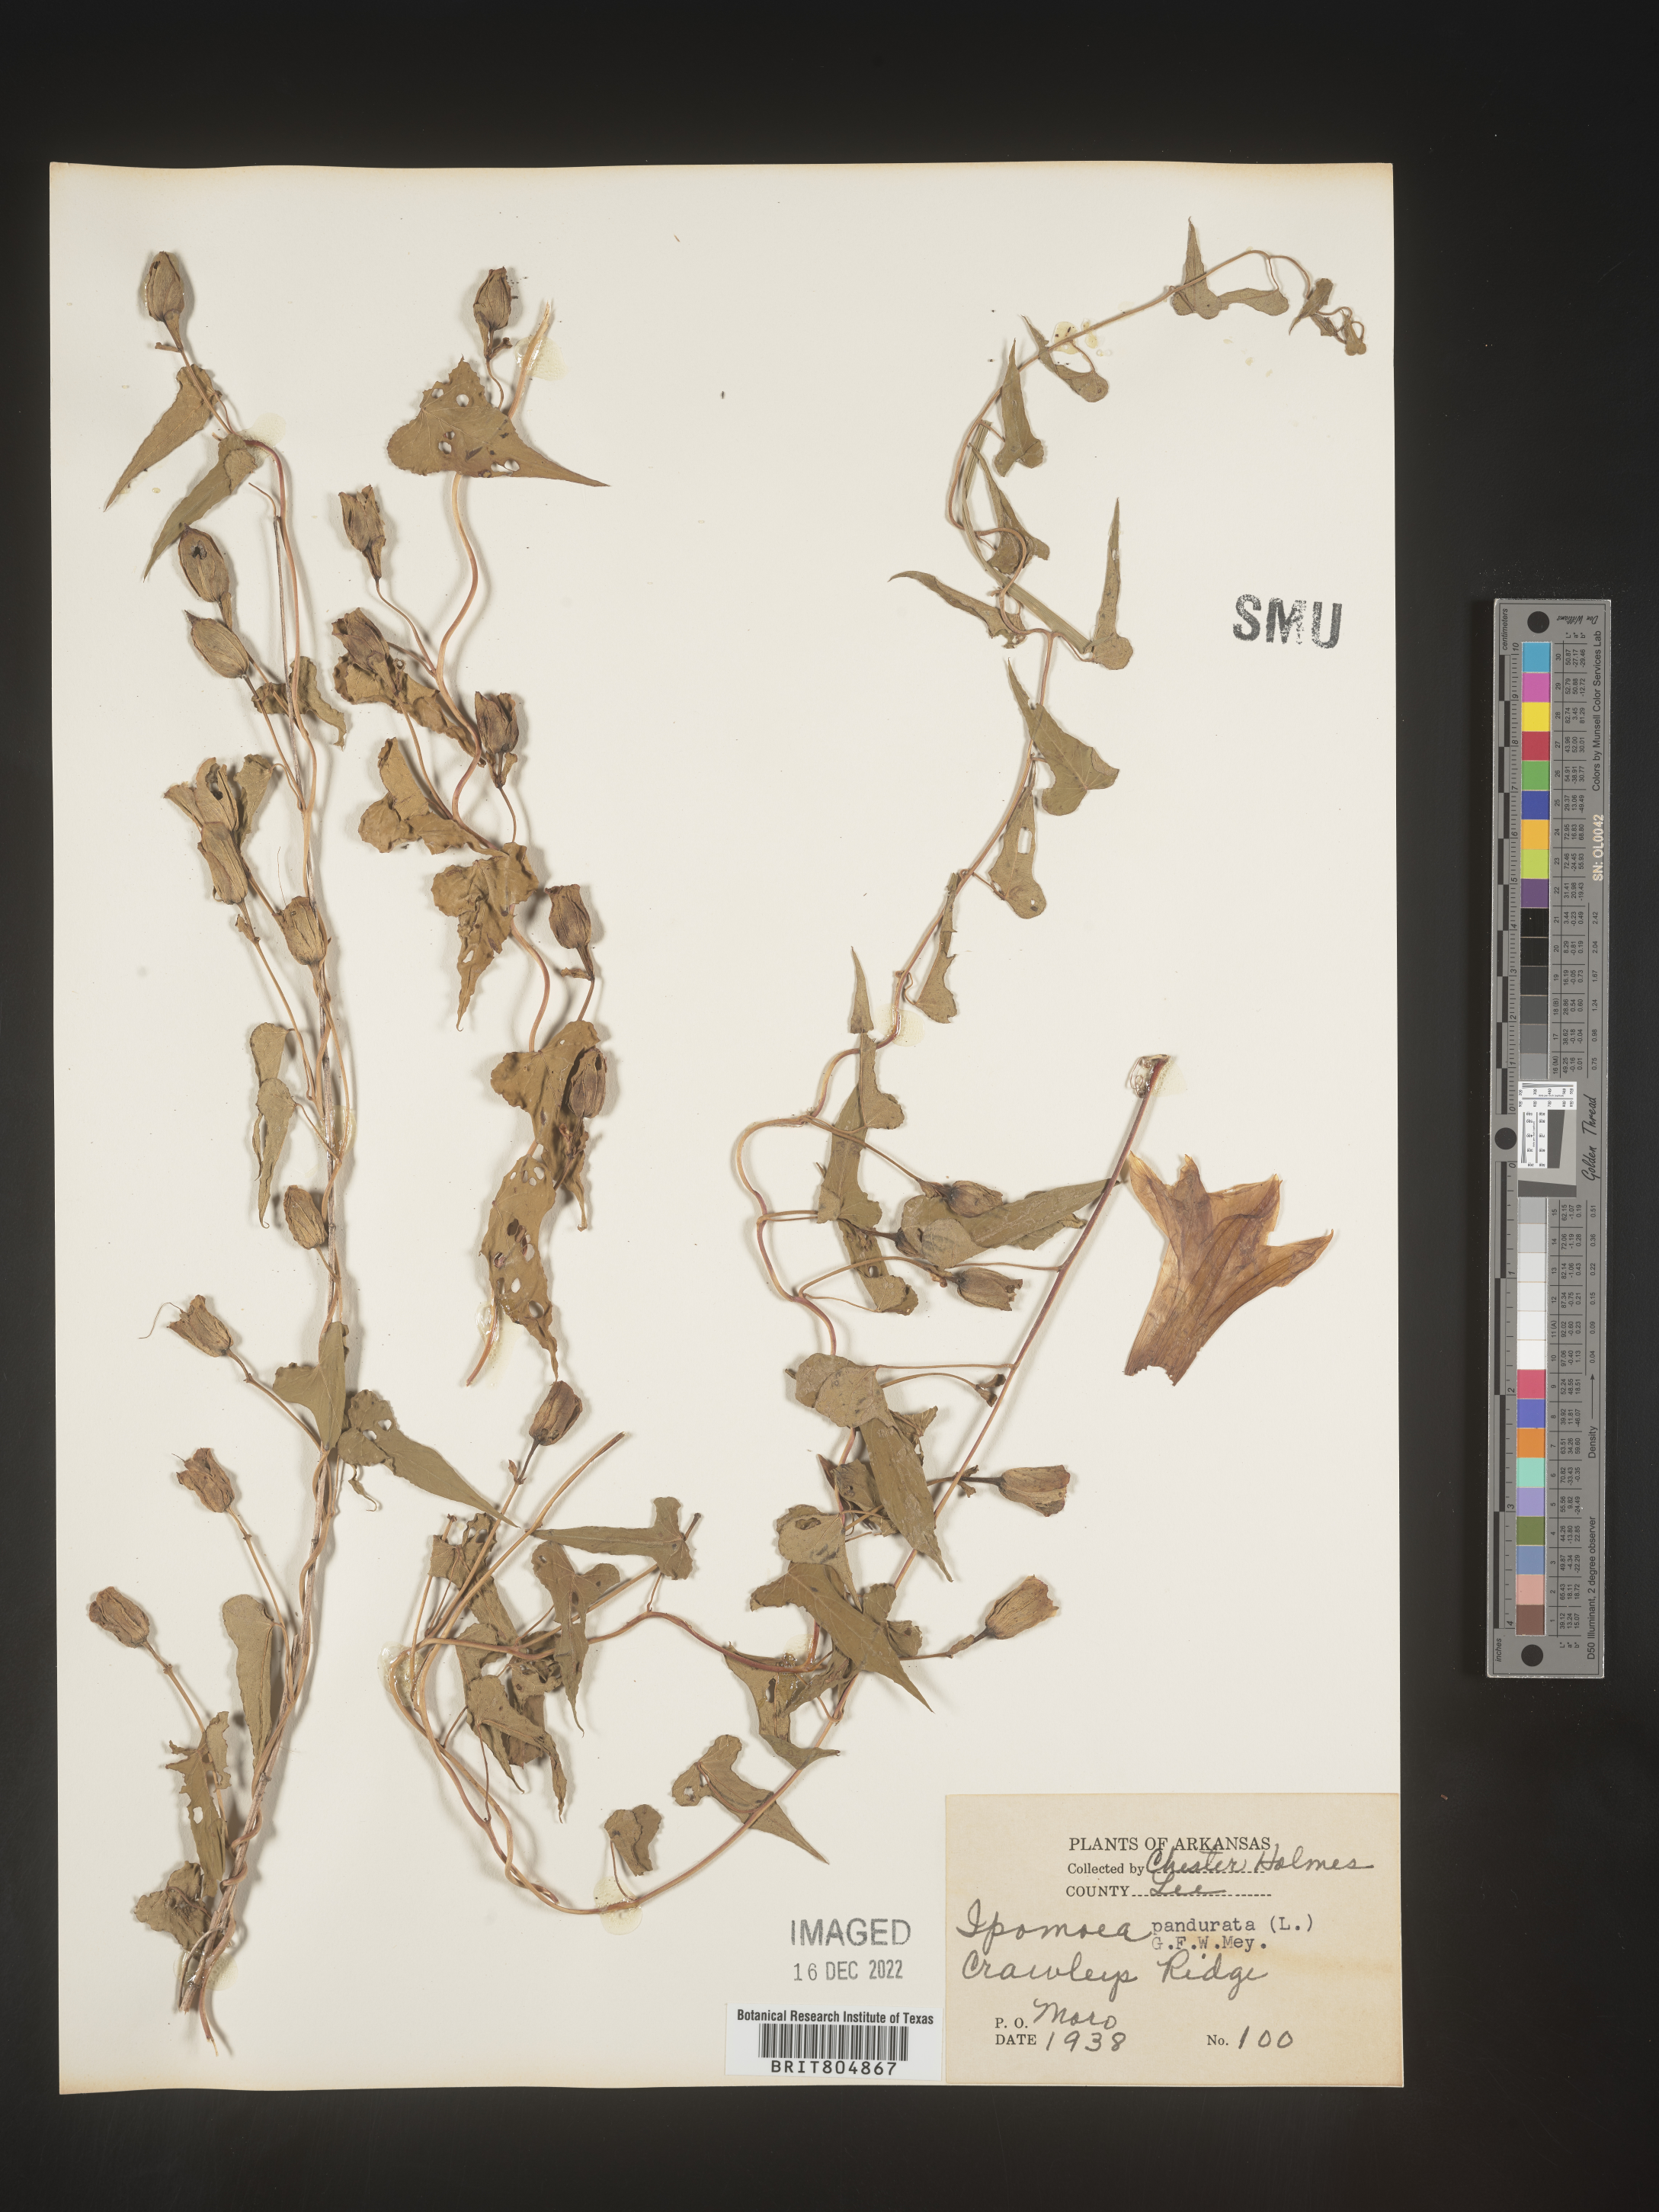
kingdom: Plantae
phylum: Tracheophyta
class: Magnoliopsida
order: Solanales
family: Convolvulaceae
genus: Ipomoea
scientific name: Ipomoea pandurata
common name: Man-of-the-earth
